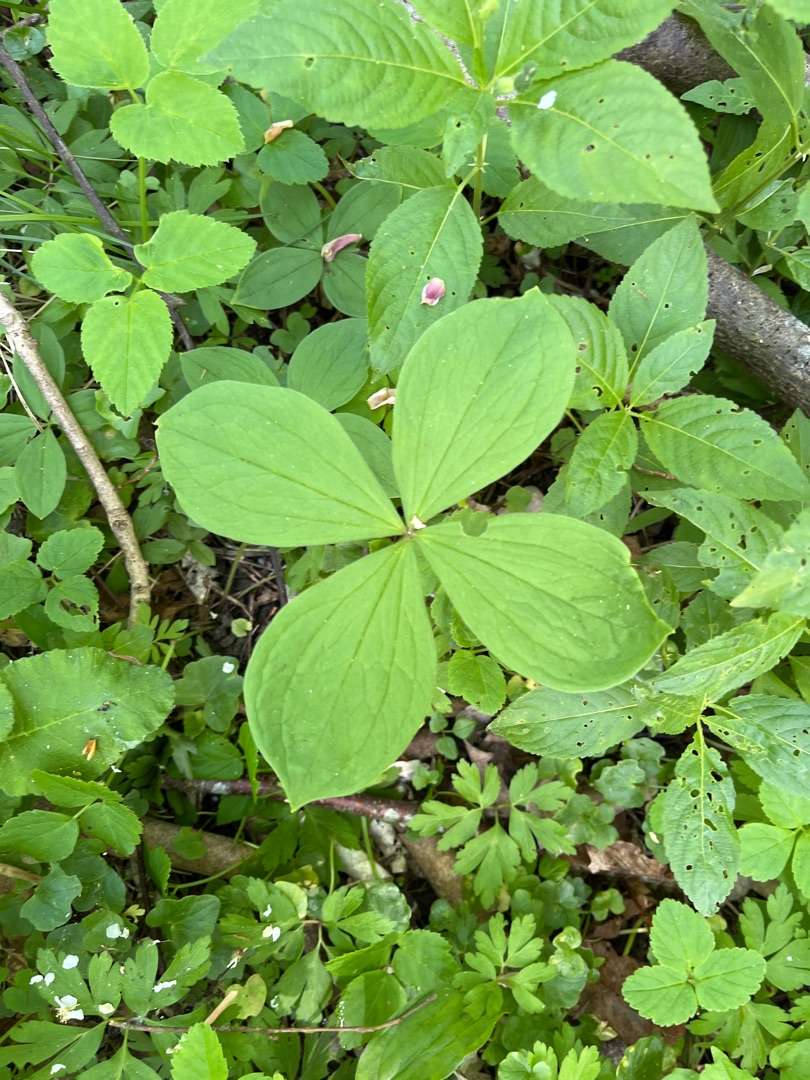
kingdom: Plantae
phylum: Tracheophyta
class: Liliopsida
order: Liliales
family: Melanthiaceae
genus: Paris
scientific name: Paris quadrifolia
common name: Firblad
